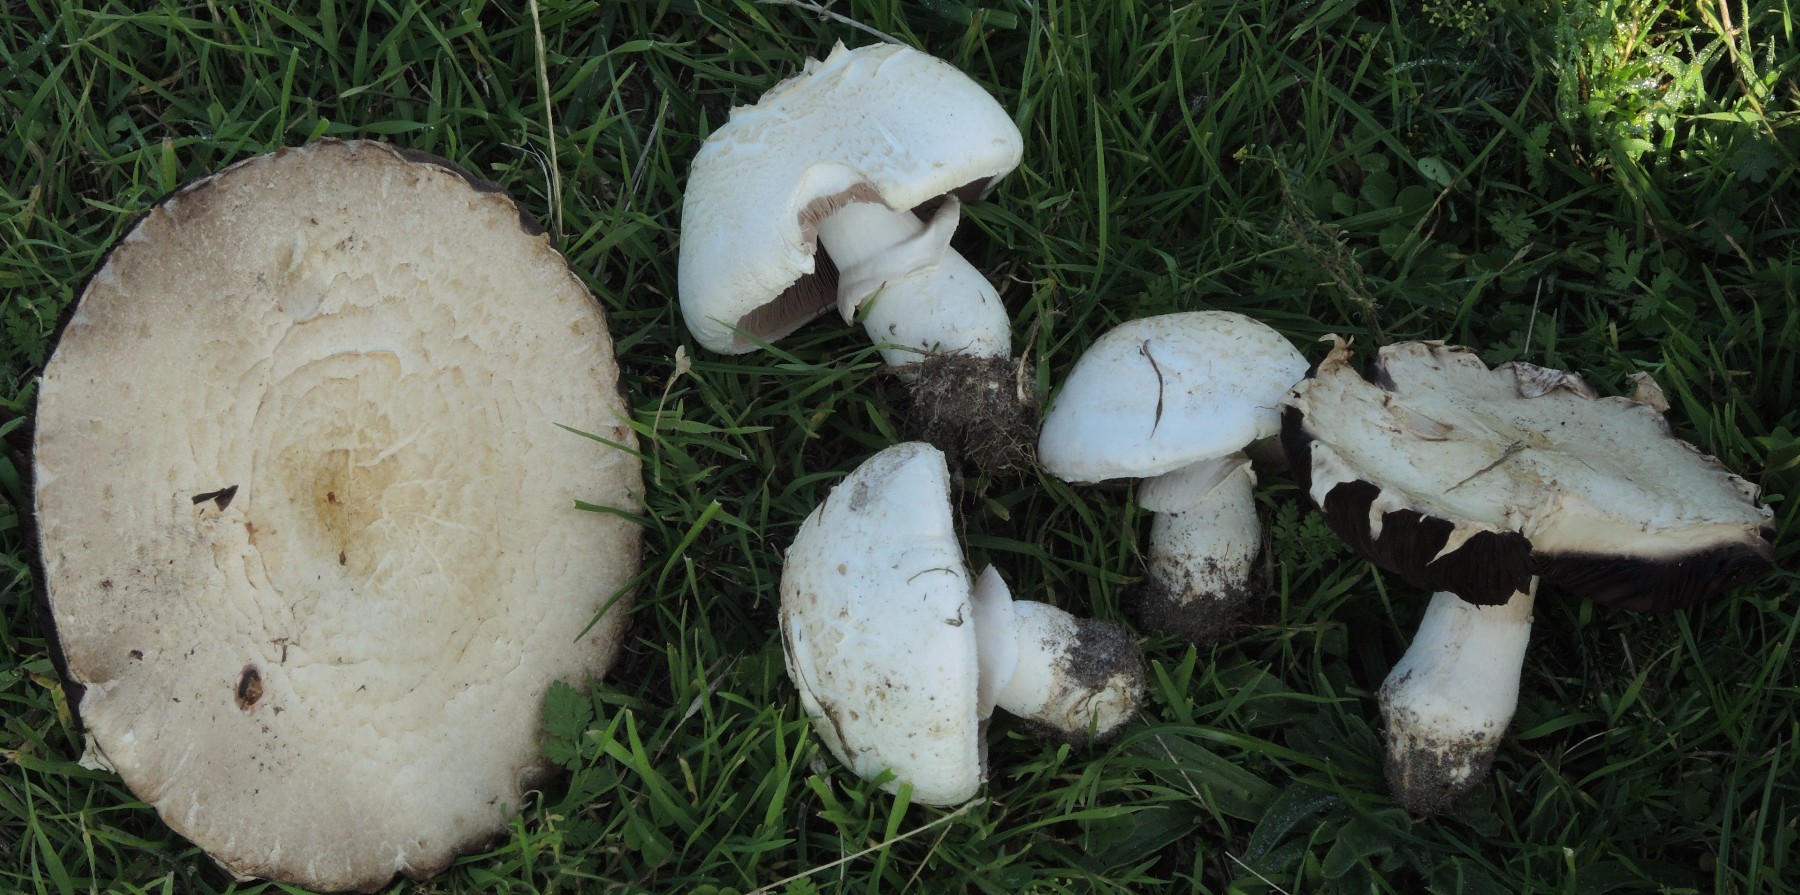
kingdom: Fungi
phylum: Basidiomycota
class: Agaricomycetes
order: Agaricales
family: Agaricaceae
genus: Agaricus
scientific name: Agaricus litoralis
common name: kyst-champignon
